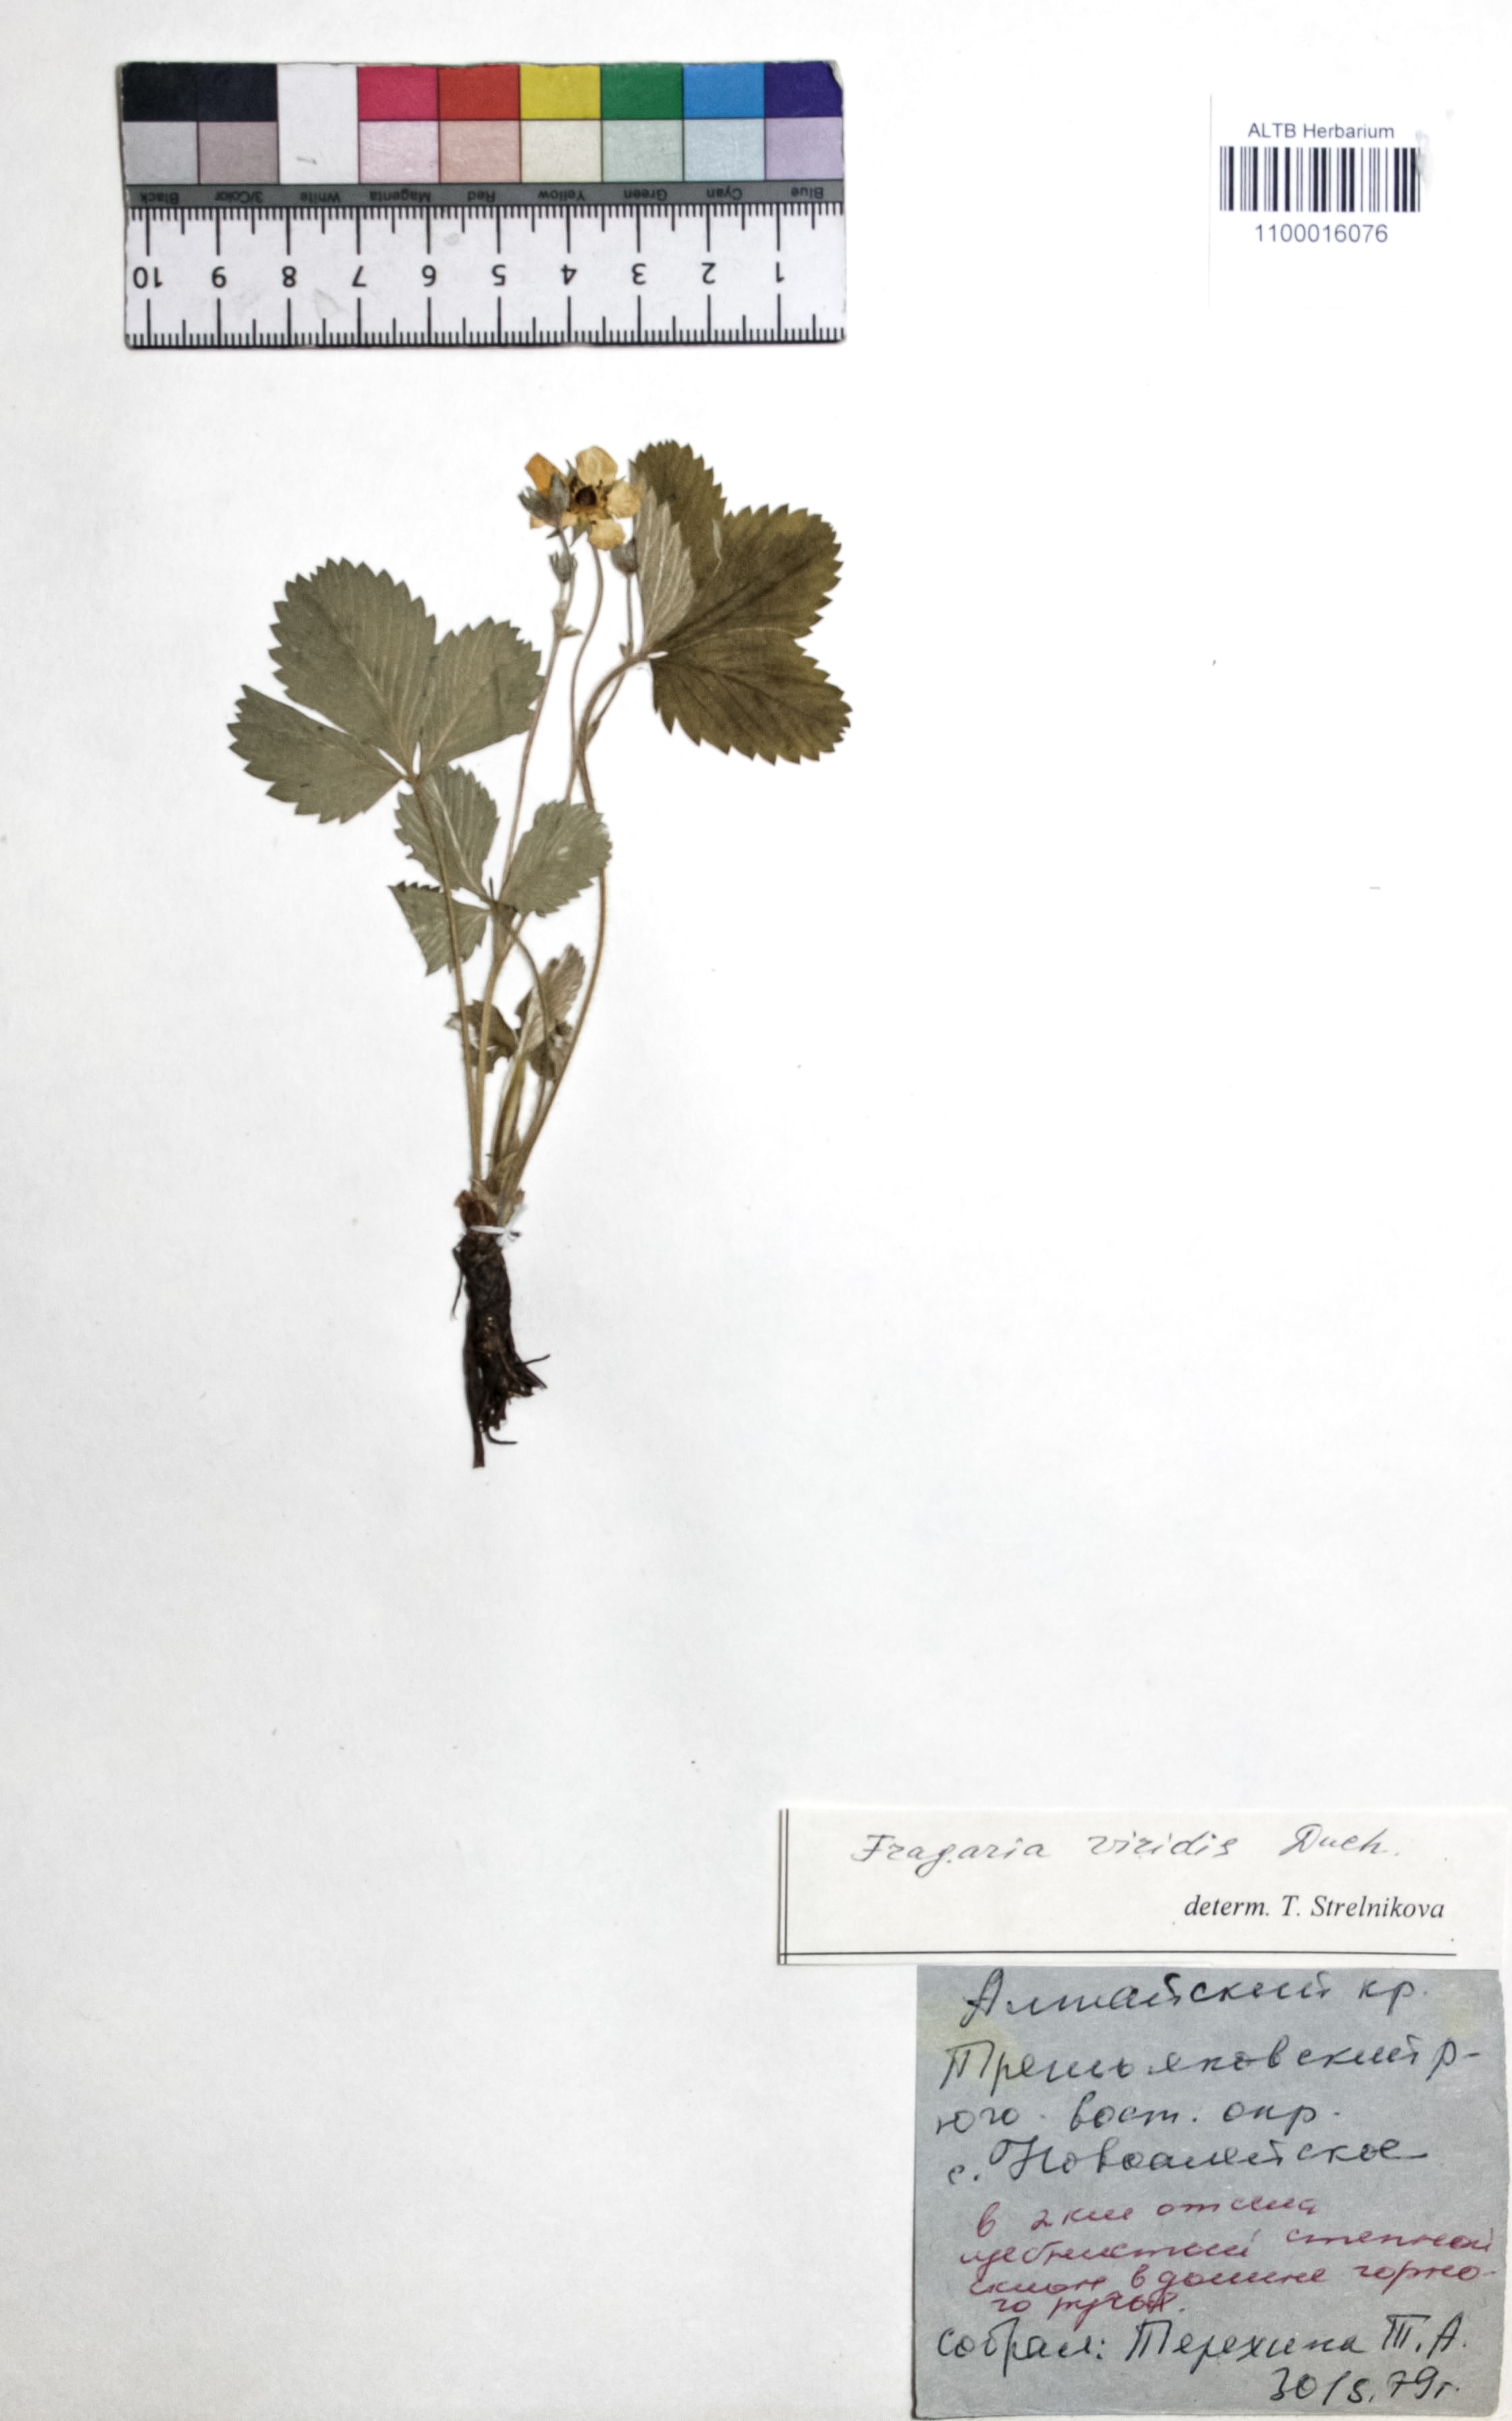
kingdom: Plantae
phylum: Tracheophyta
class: Magnoliopsida
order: Rosales
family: Rosaceae
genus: Fragaria
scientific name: Fragaria viridis
